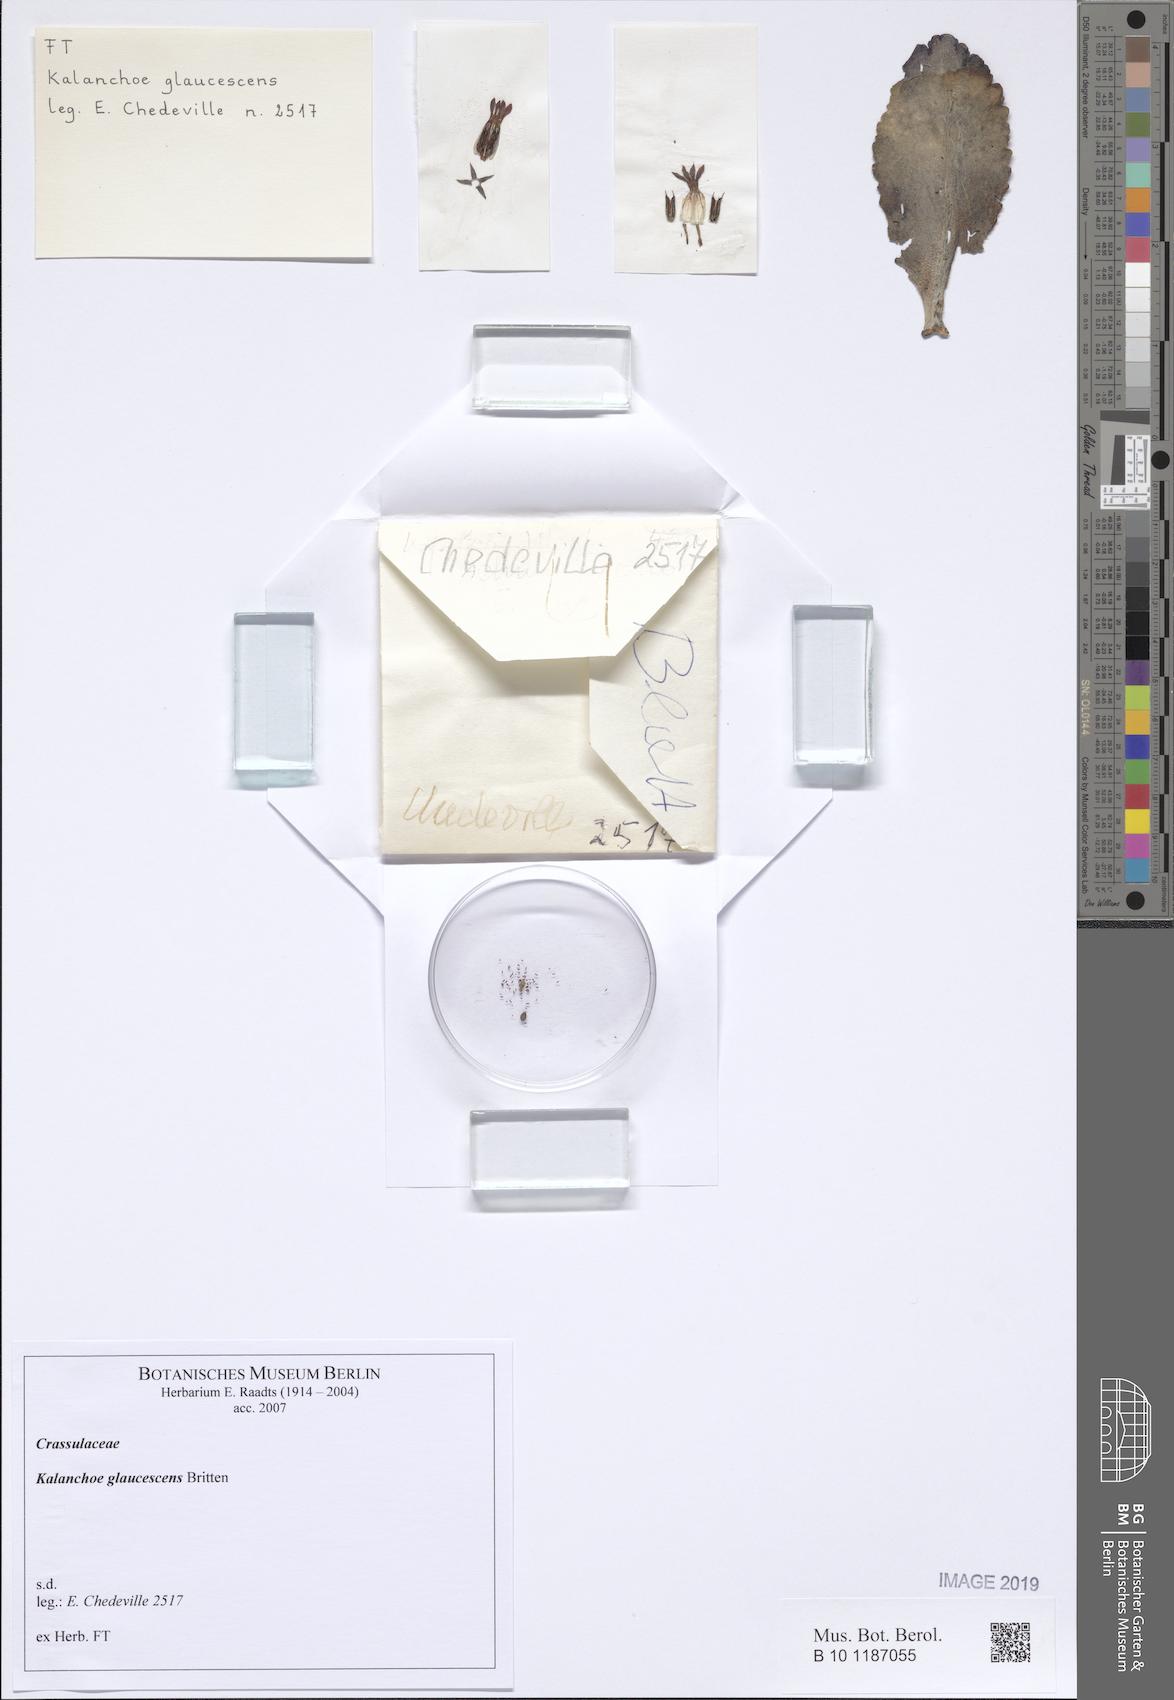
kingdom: Plantae
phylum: Tracheophyta
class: Magnoliopsida
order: Saxifragales
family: Crassulaceae
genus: Kalanchoe
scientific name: Kalanchoe glaucescens
